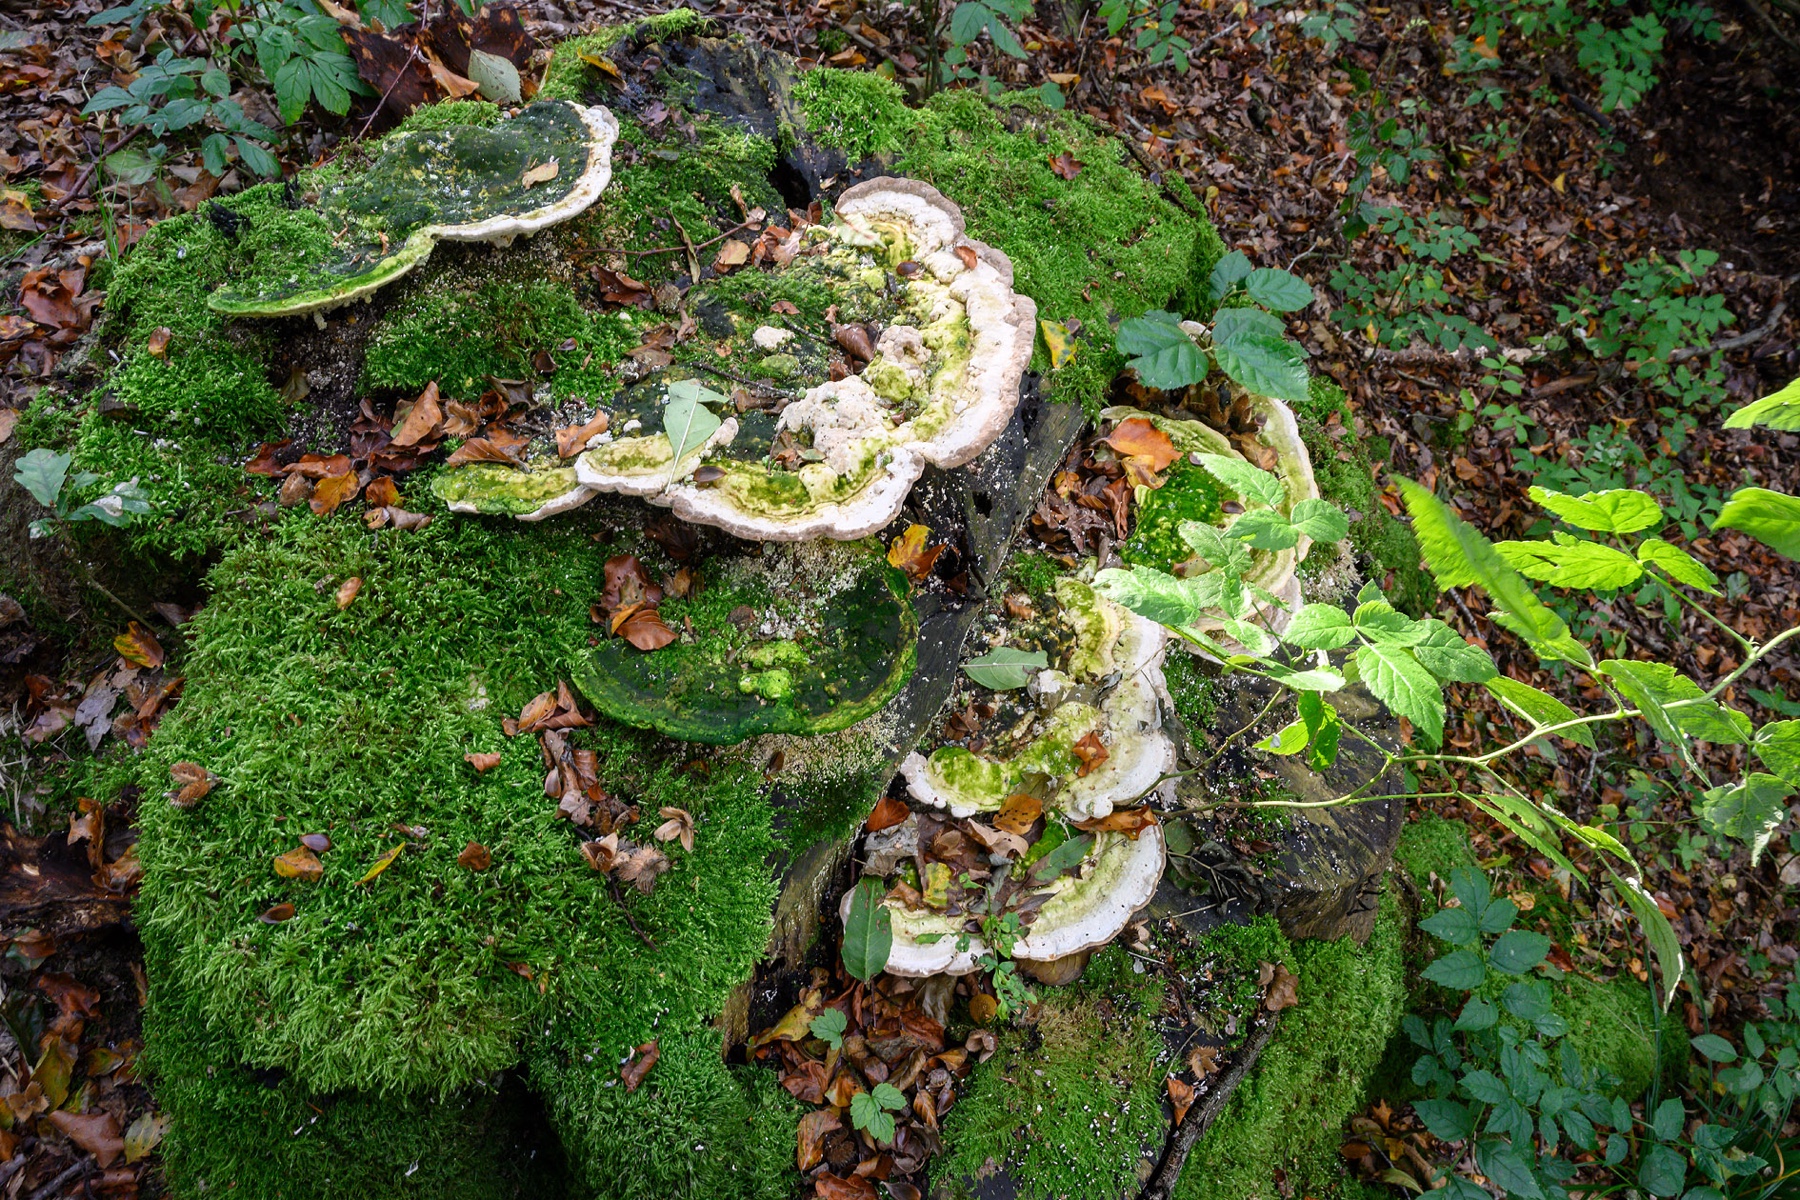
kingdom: Fungi
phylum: Basidiomycota
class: Agaricomycetes
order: Polyporales
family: Polyporaceae
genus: Trametes
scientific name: Trametes gibbosa
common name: puklet læderporesvamp
